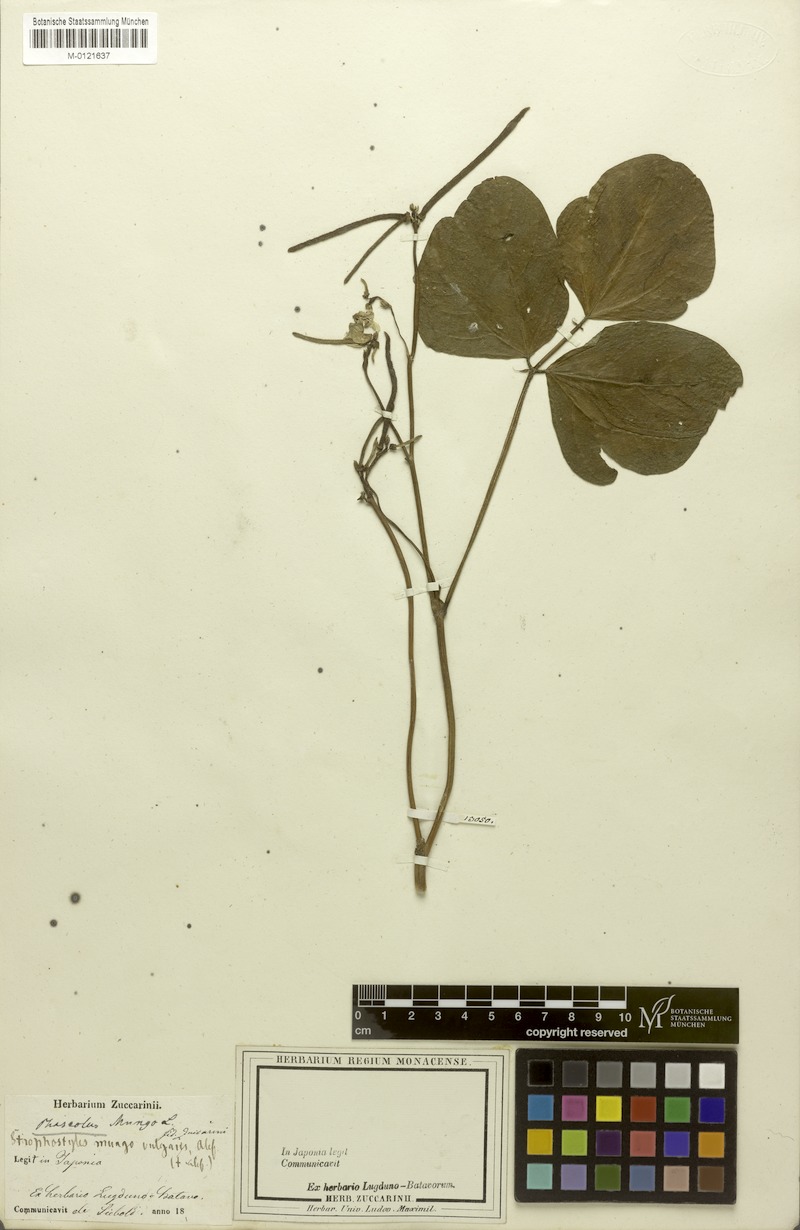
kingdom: Plantae
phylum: Tracheophyta
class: Magnoliopsida
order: Fabales
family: Fabaceae
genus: Vigna
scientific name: Vigna mungo
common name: Black gram
